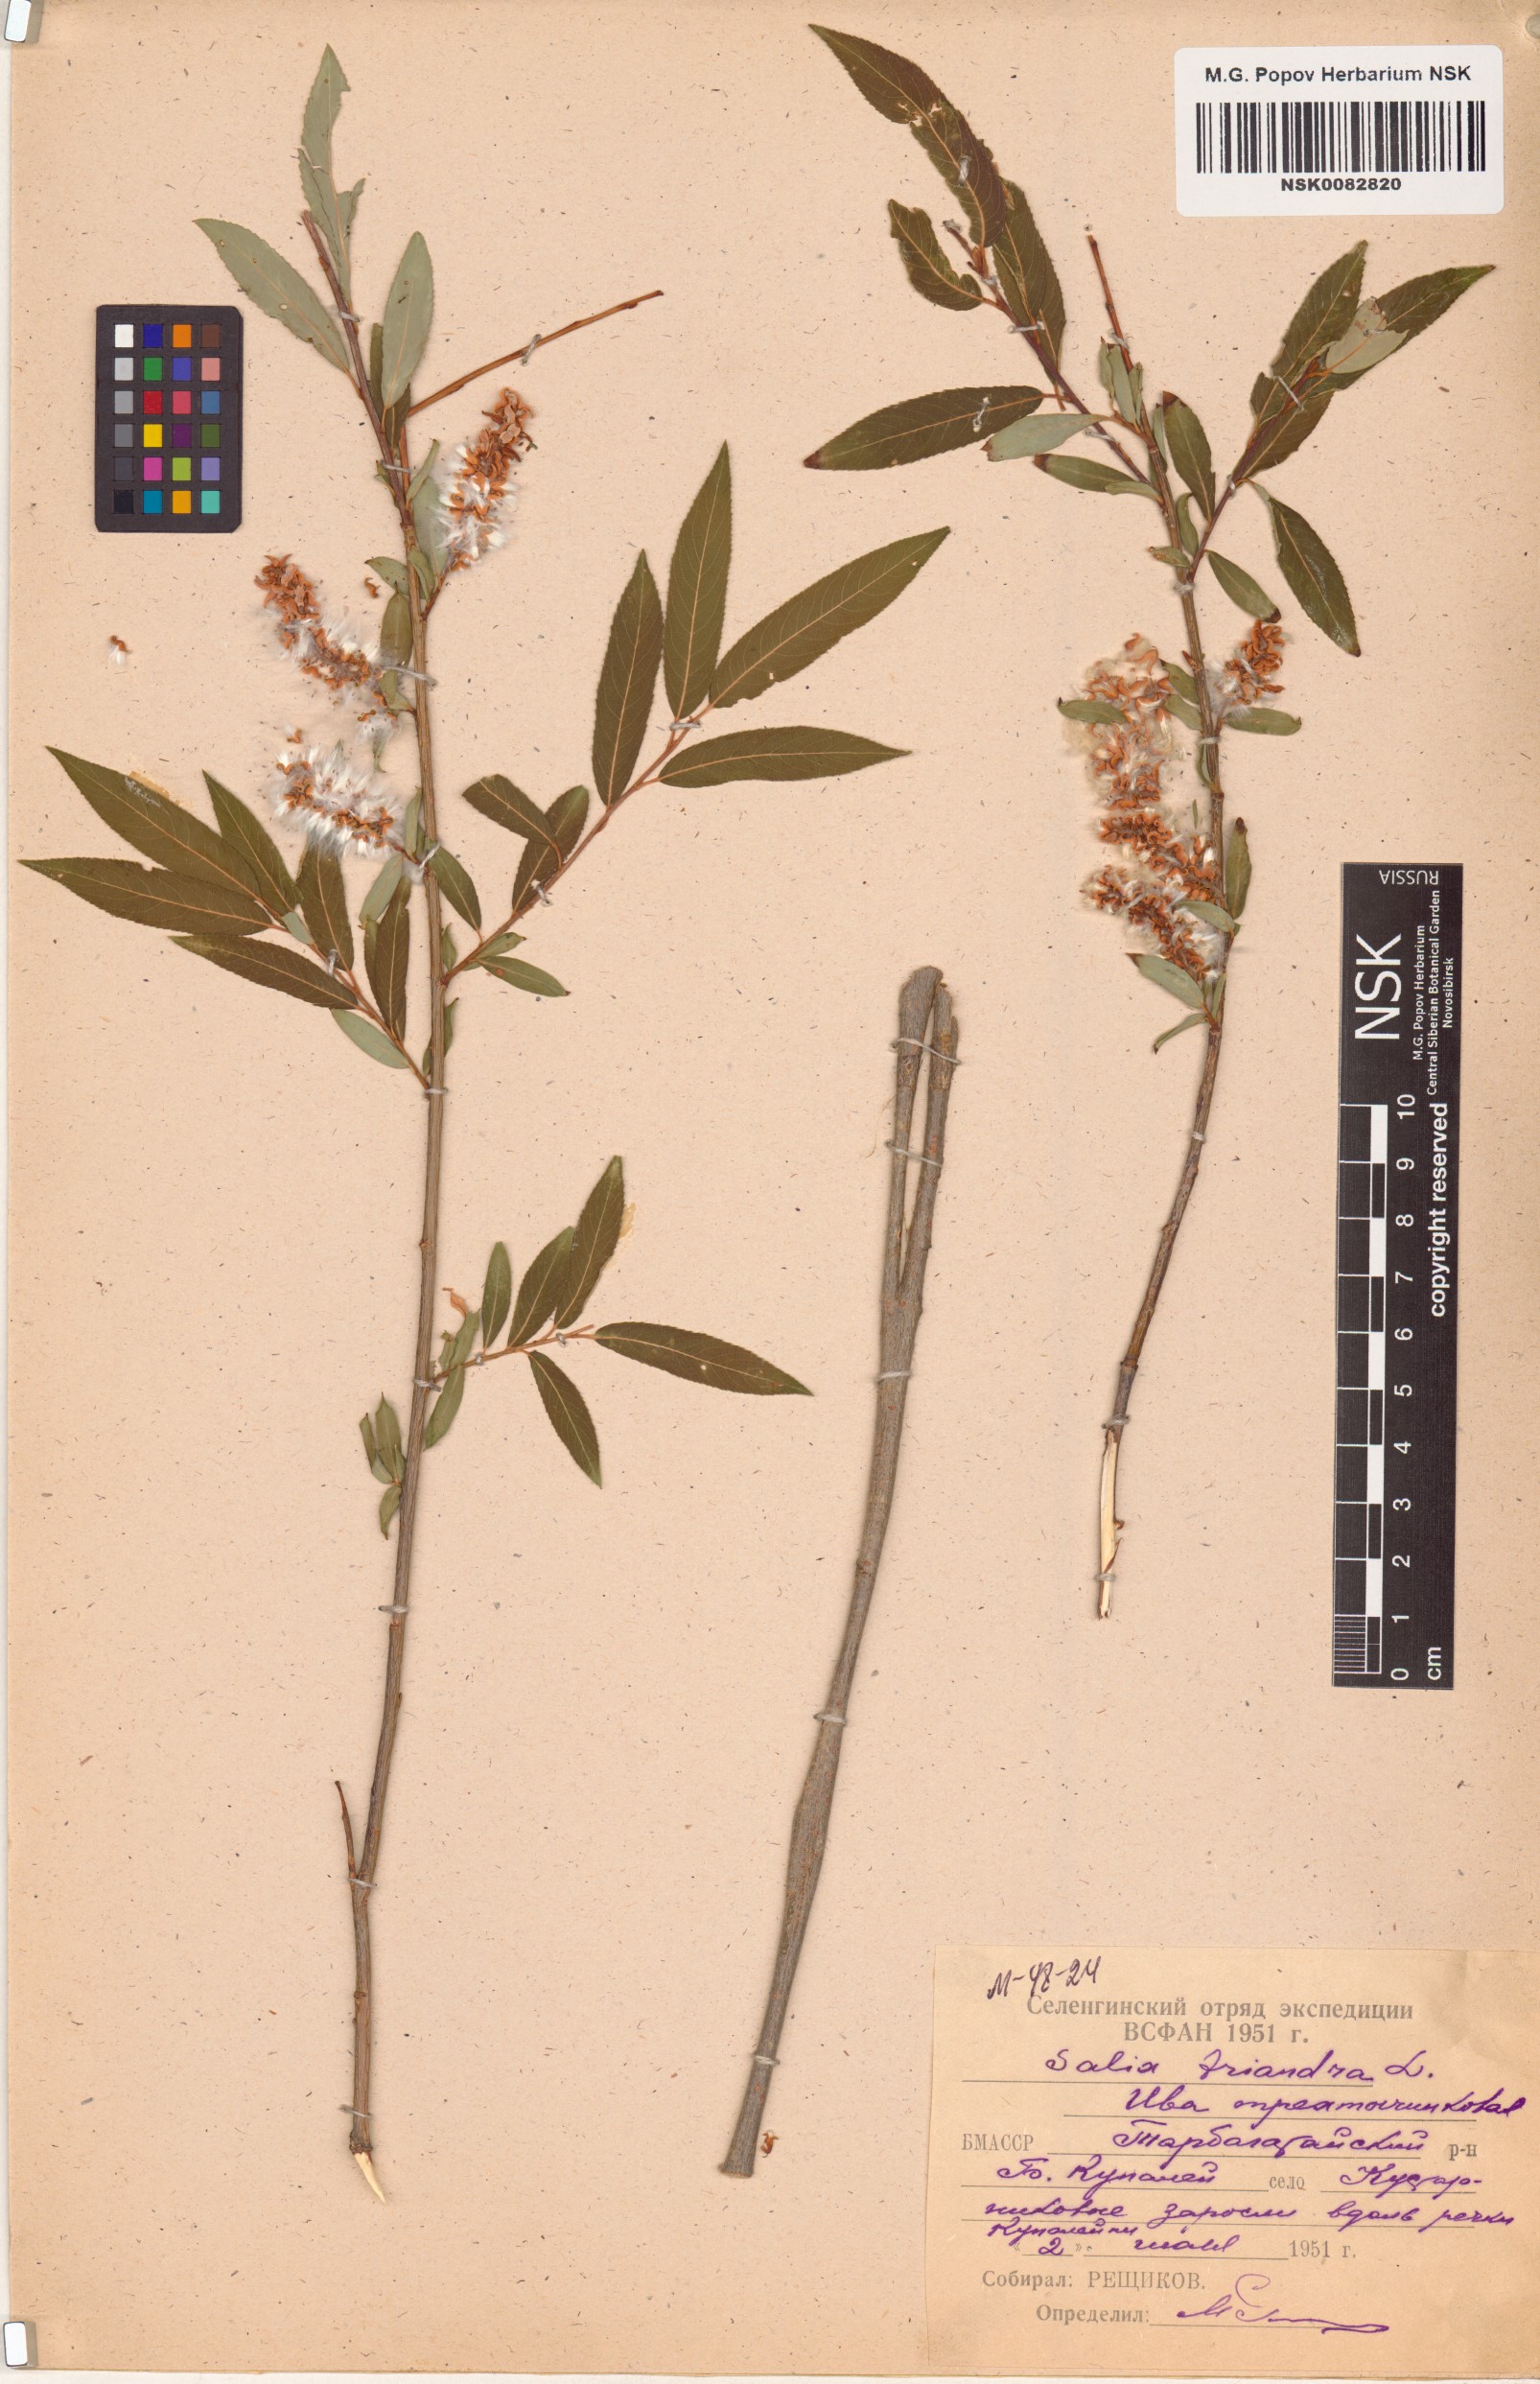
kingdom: Plantae
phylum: Tracheophyta
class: Magnoliopsida
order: Malpighiales
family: Salicaceae
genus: Salix
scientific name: Salix triandra
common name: Almond willow
